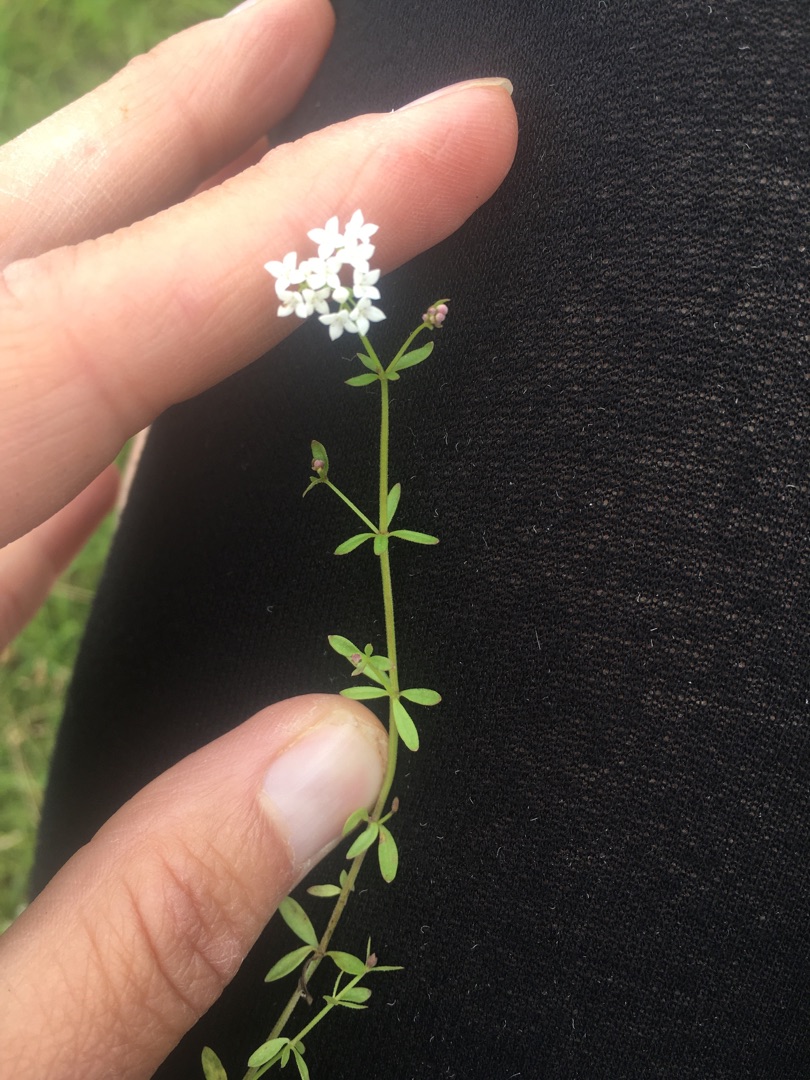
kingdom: Plantae
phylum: Tracheophyta
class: Magnoliopsida
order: Gentianales
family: Rubiaceae
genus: Galium
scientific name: Galium palustre
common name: Kær-snerre
